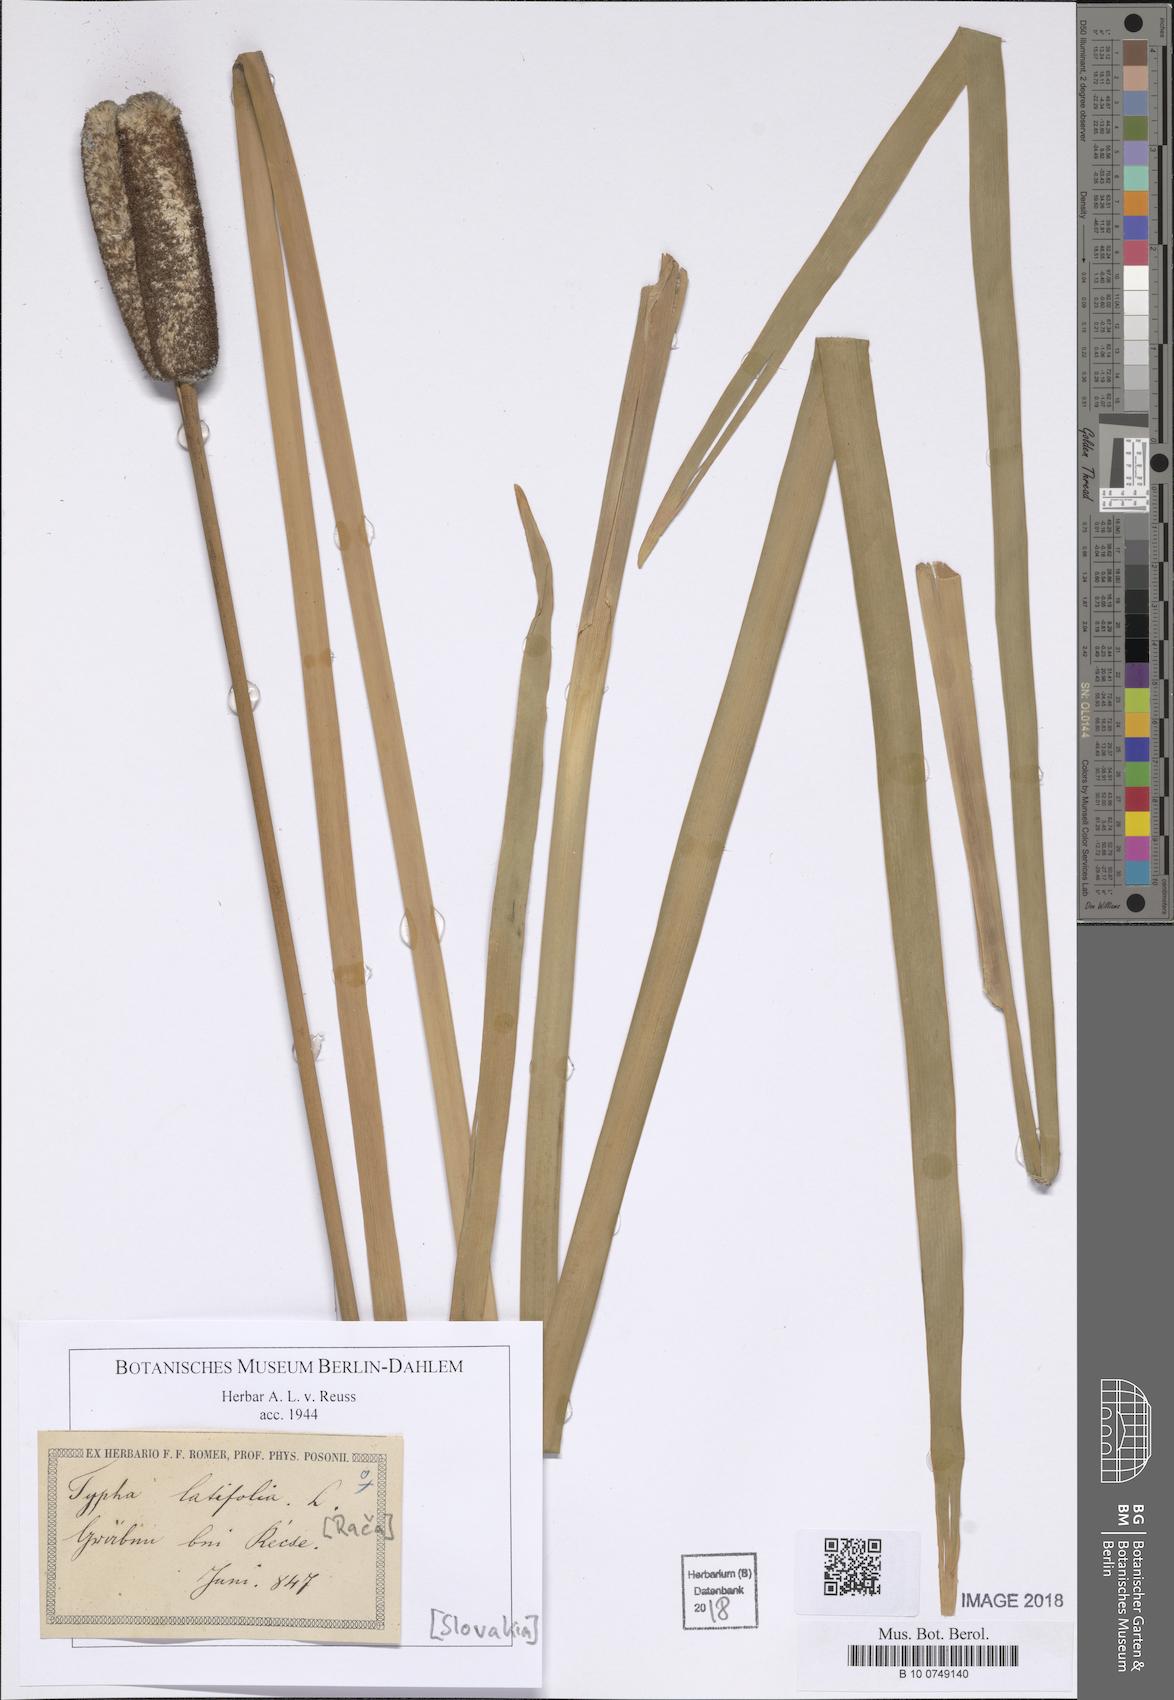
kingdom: Plantae
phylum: Tracheophyta
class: Liliopsida
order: Poales
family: Typhaceae
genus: Typha
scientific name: Typha latifolia
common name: Broadleaf cattail
